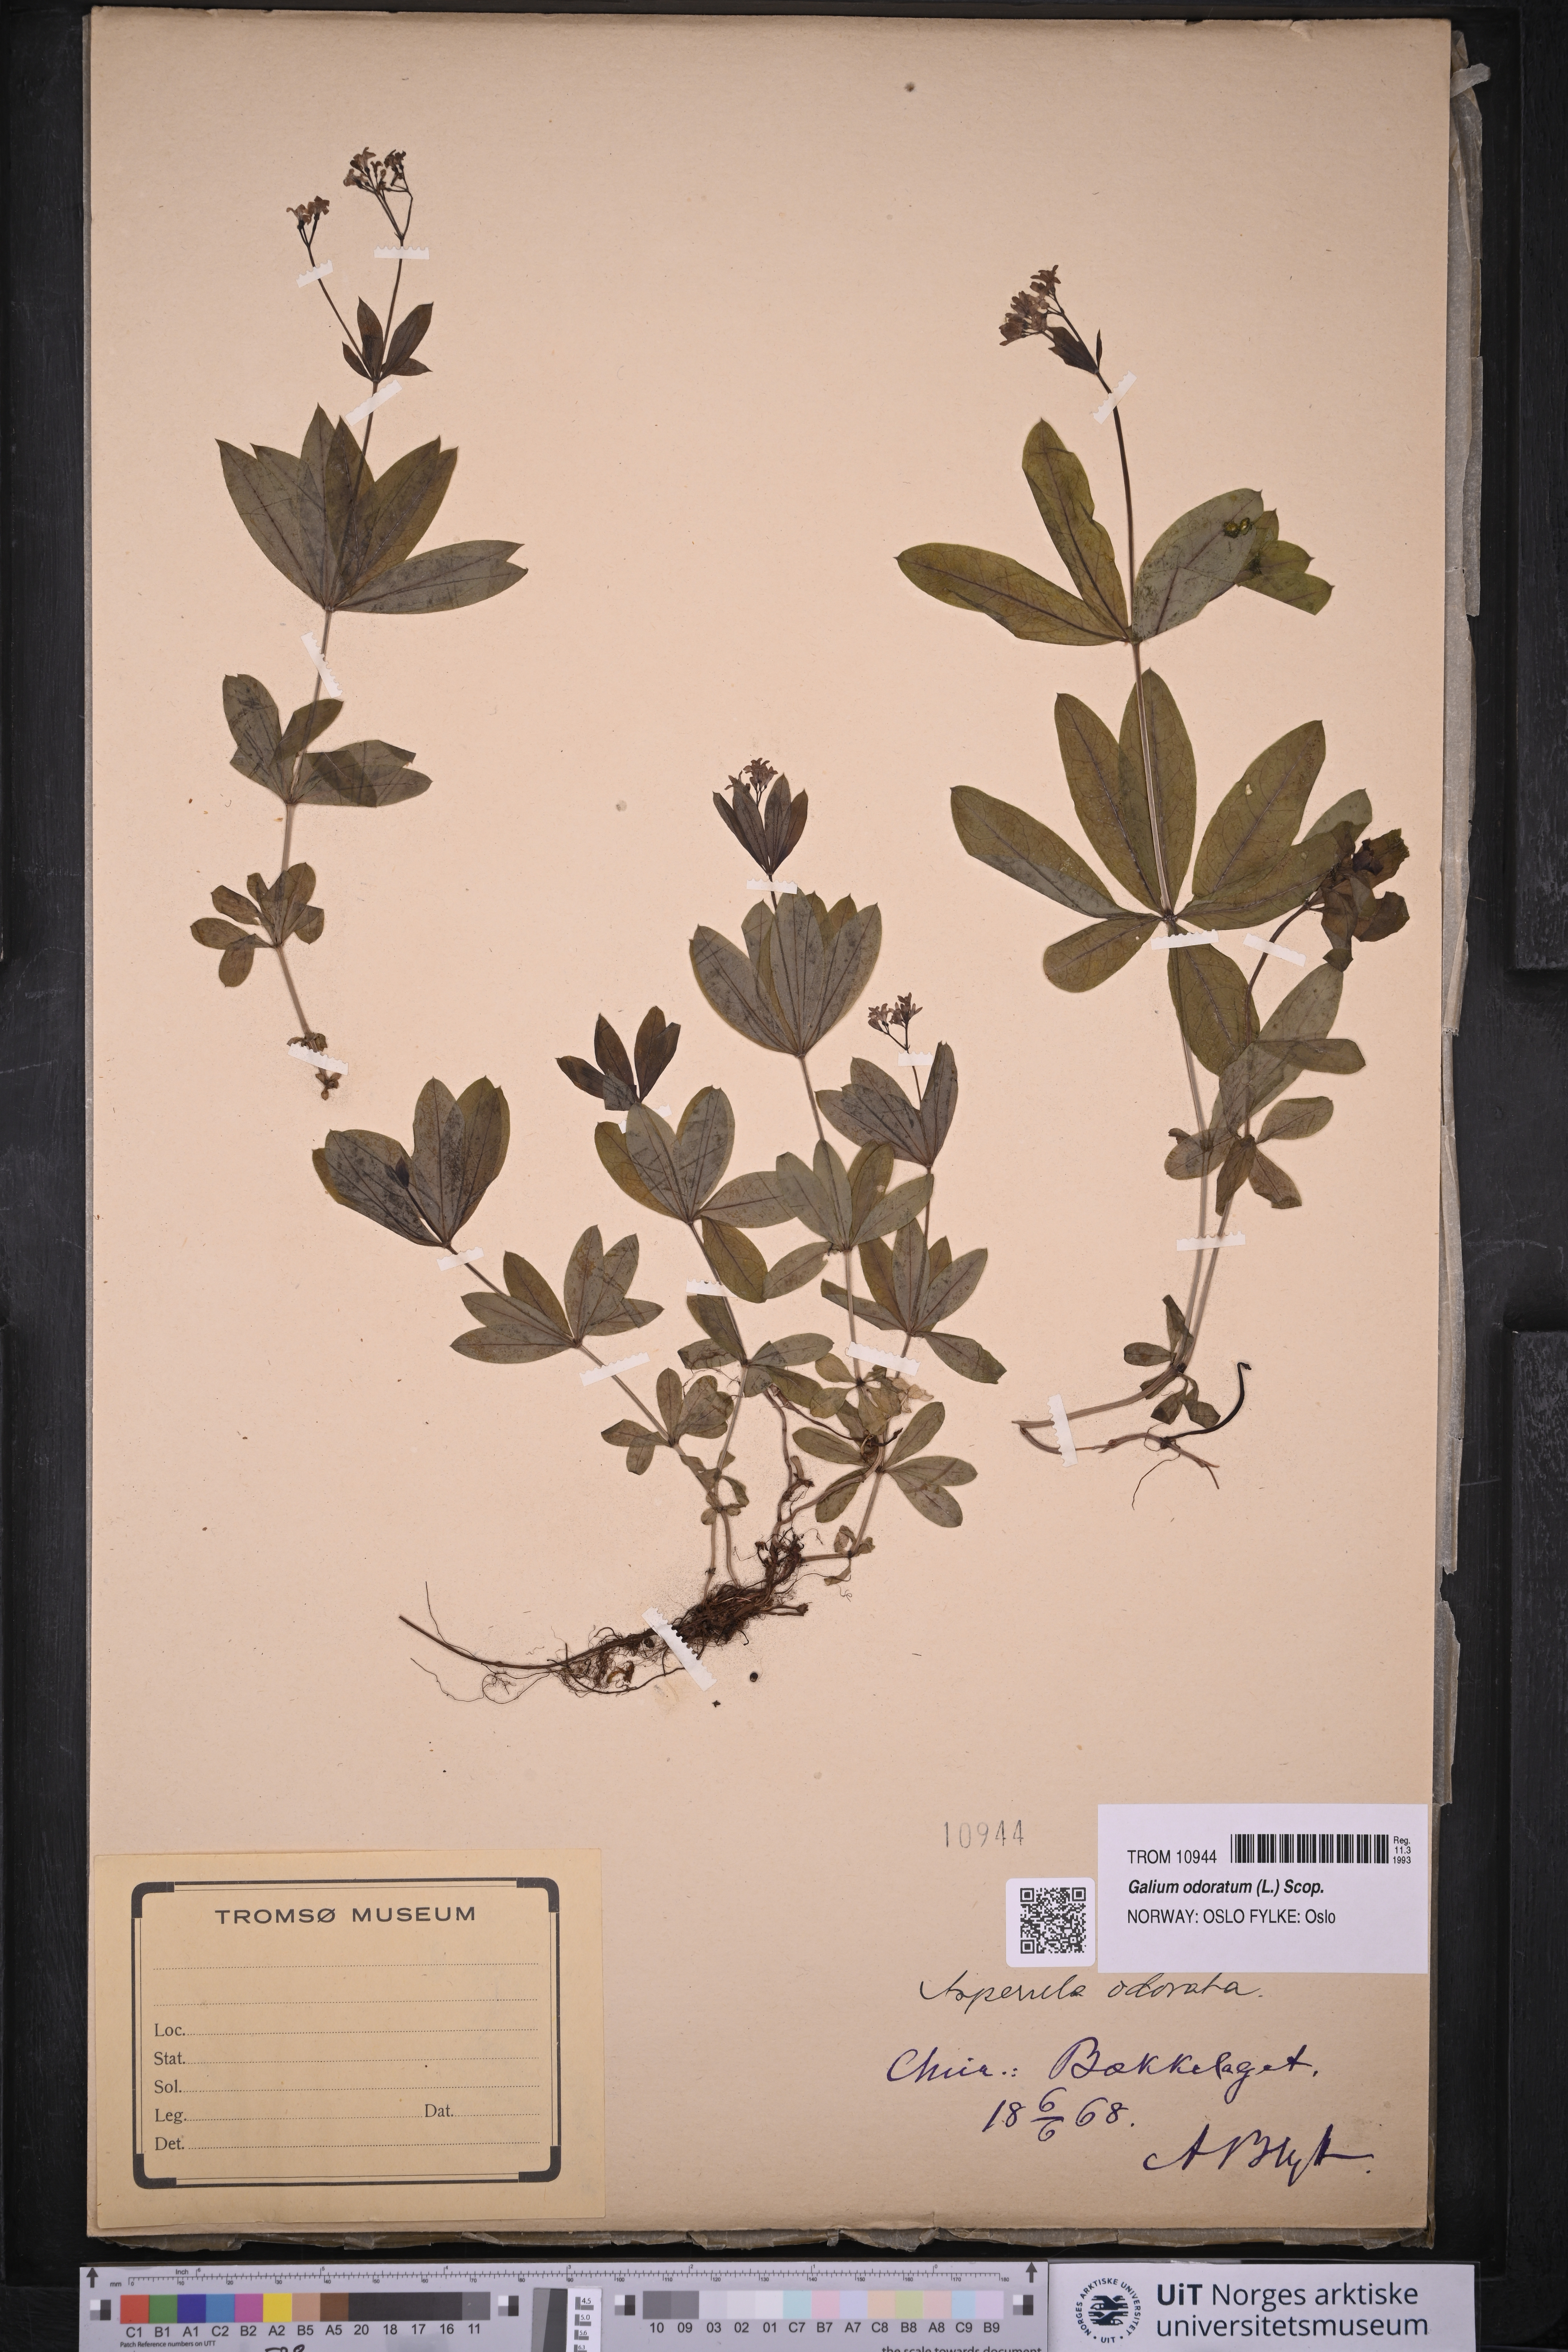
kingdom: Plantae
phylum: Tracheophyta
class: Magnoliopsida
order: Gentianales
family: Rubiaceae
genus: Galium
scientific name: Galium odoratum
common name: Sweet woodruff
